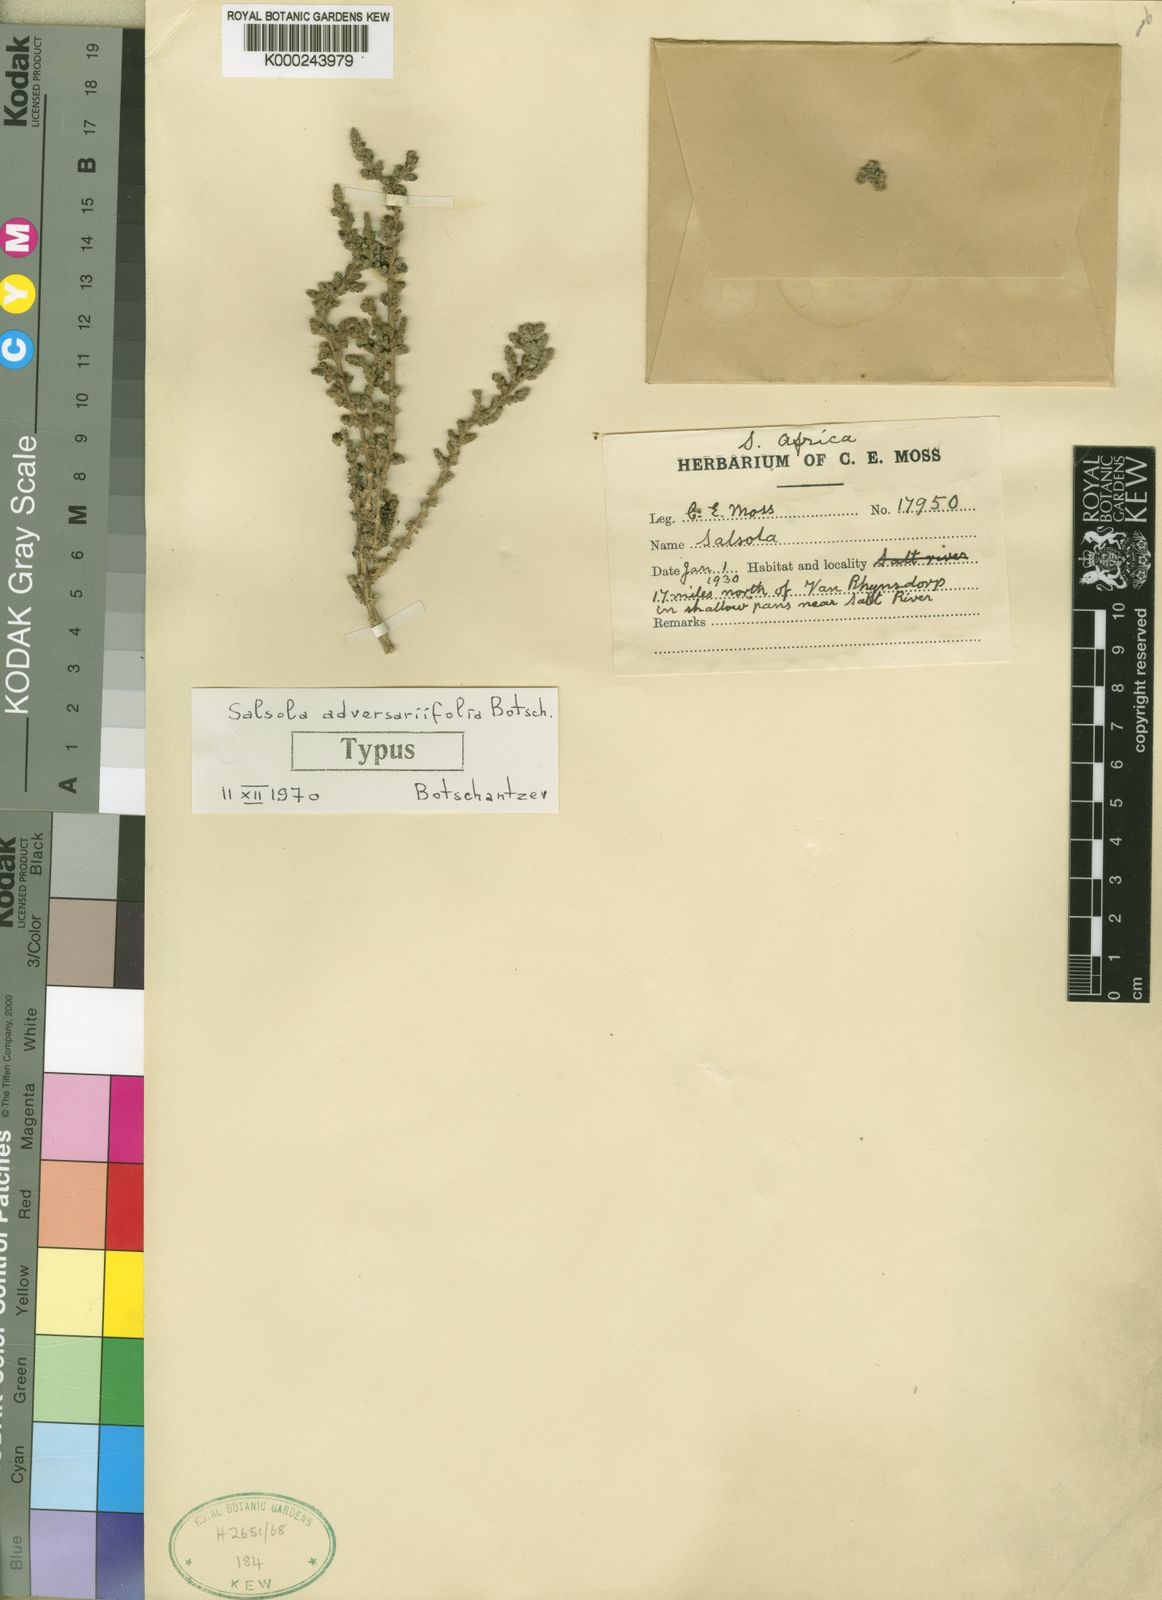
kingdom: Plantae
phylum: Tracheophyta
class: Magnoliopsida
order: Caryophyllales
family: Amaranthaceae
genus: Caroxylon
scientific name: Caroxylon adversariifolium
